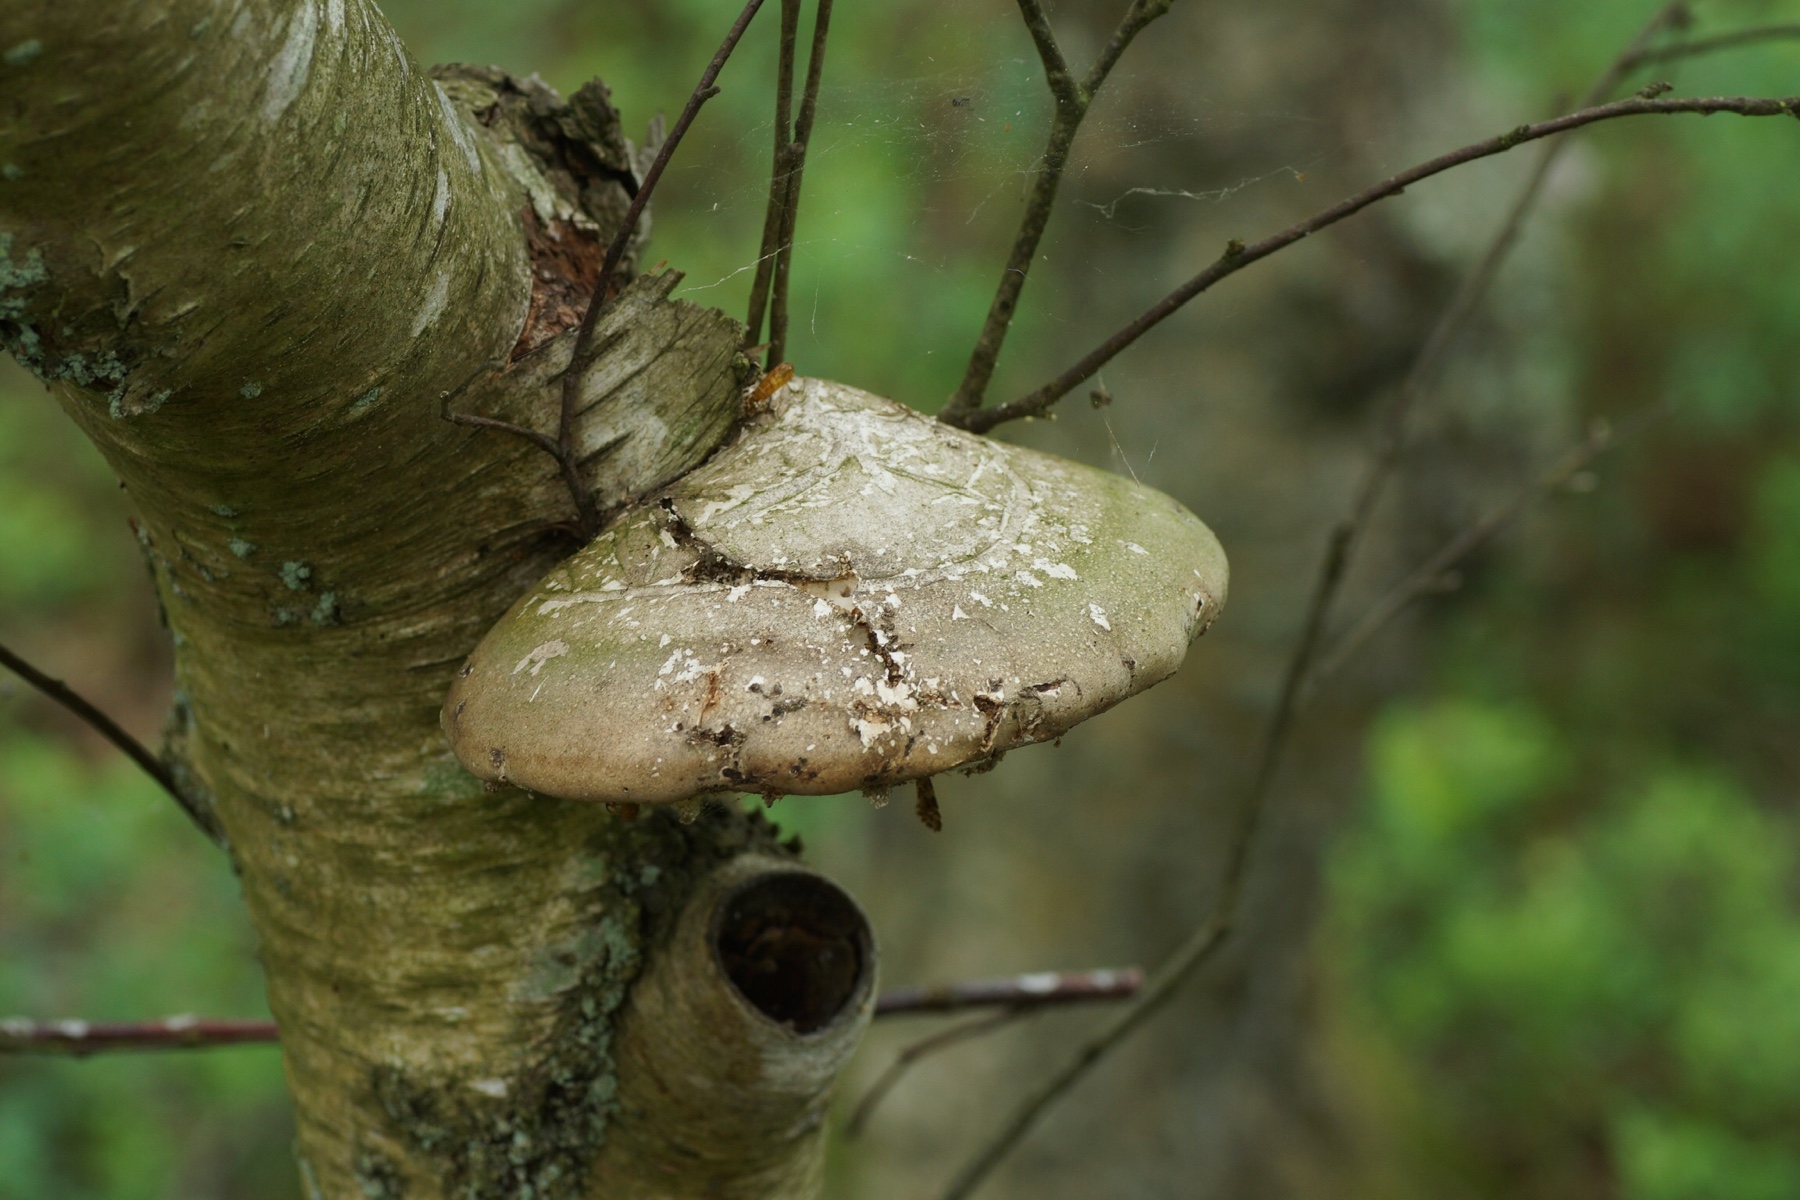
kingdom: Fungi
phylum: Basidiomycota
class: Agaricomycetes
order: Polyporales
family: Fomitopsidaceae
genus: Fomitopsis
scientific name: Fomitopsis betulina
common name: birkeporesvamp
